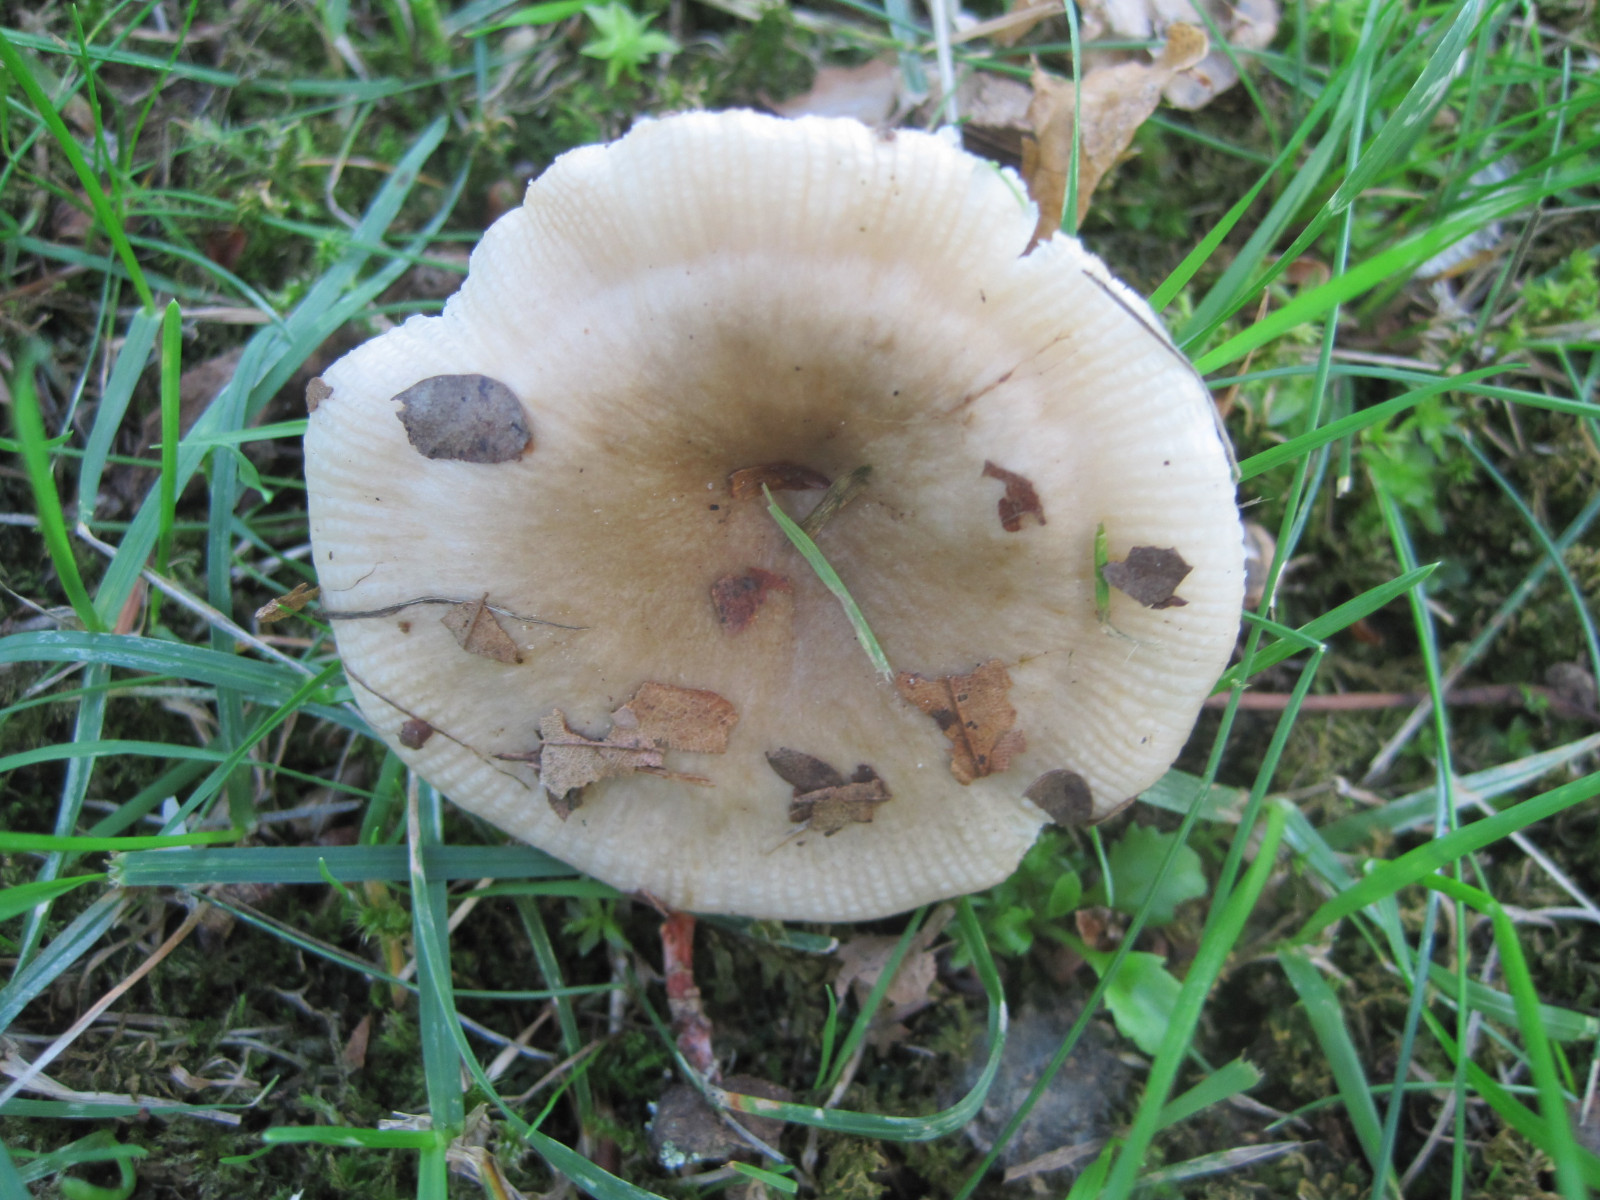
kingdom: Fungi
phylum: Basidiomycota
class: Agaricomycetes
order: Russulales
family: Russulaceae
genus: Russula
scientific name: Russula recondita
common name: mild kam-skørhat
